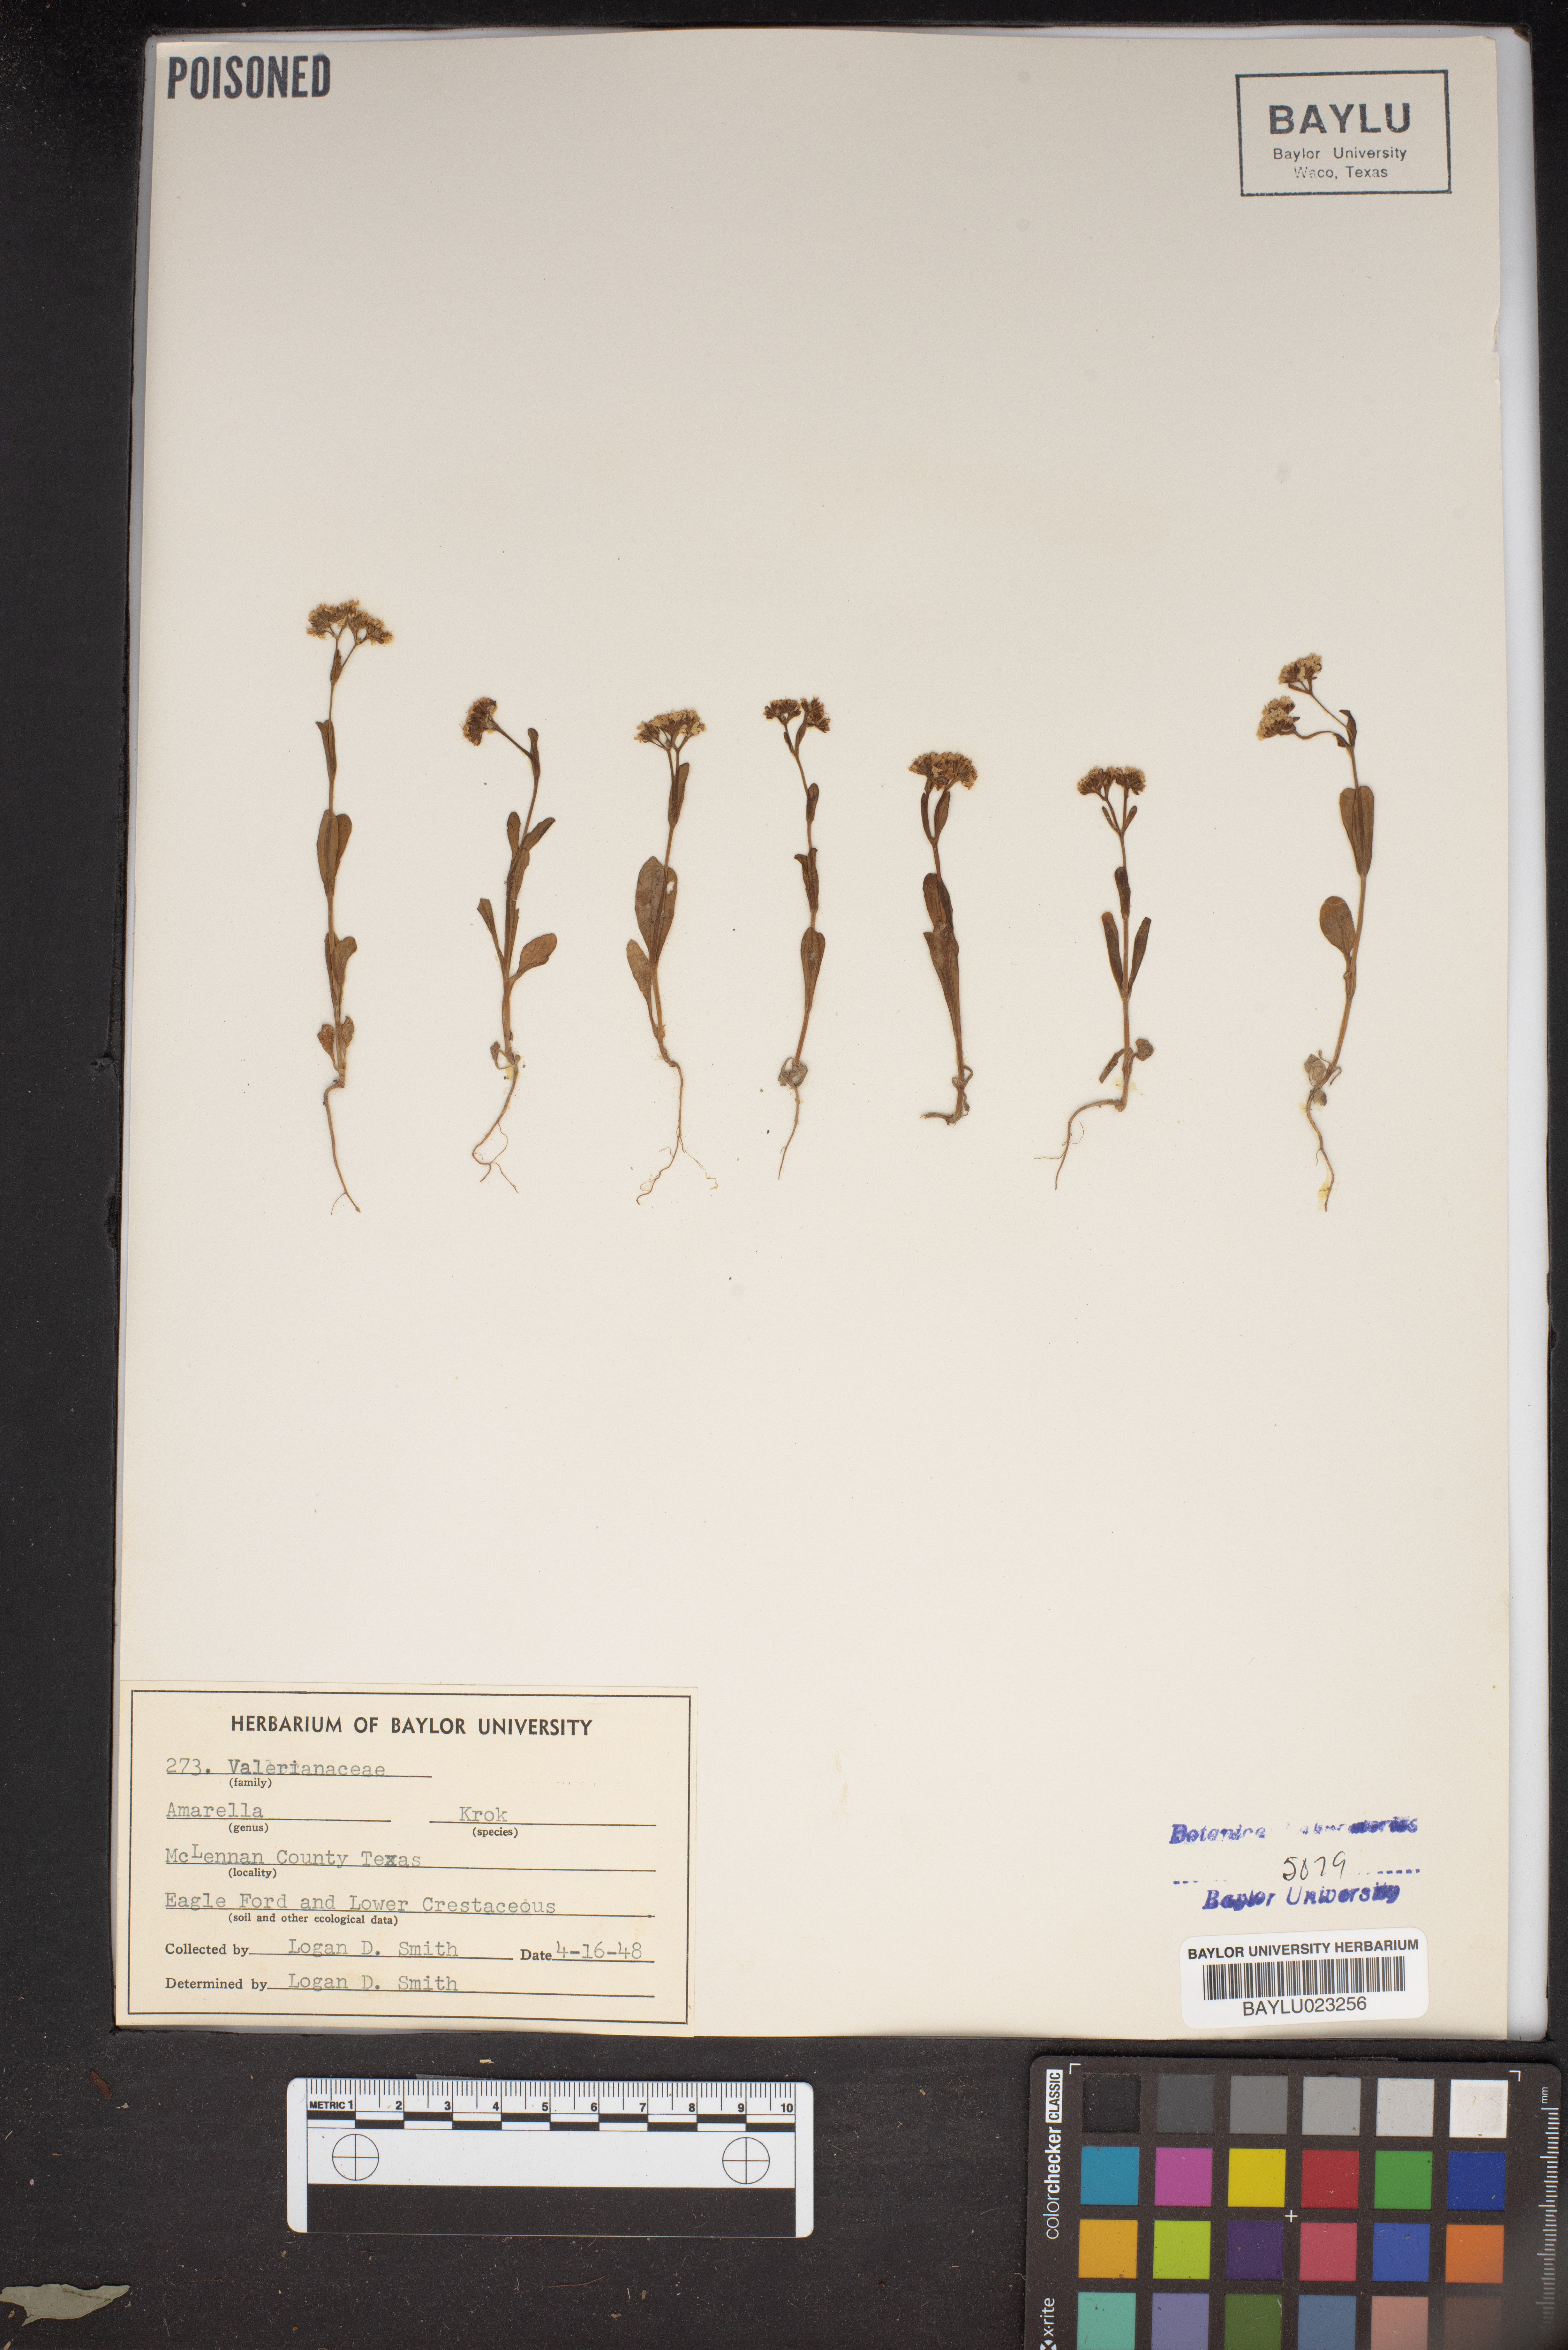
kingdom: Plantae
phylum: Tracheophyta
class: Magnoliopsida
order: Gentianales
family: Gentianaceae
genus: Gentianella
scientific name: Gentianella
